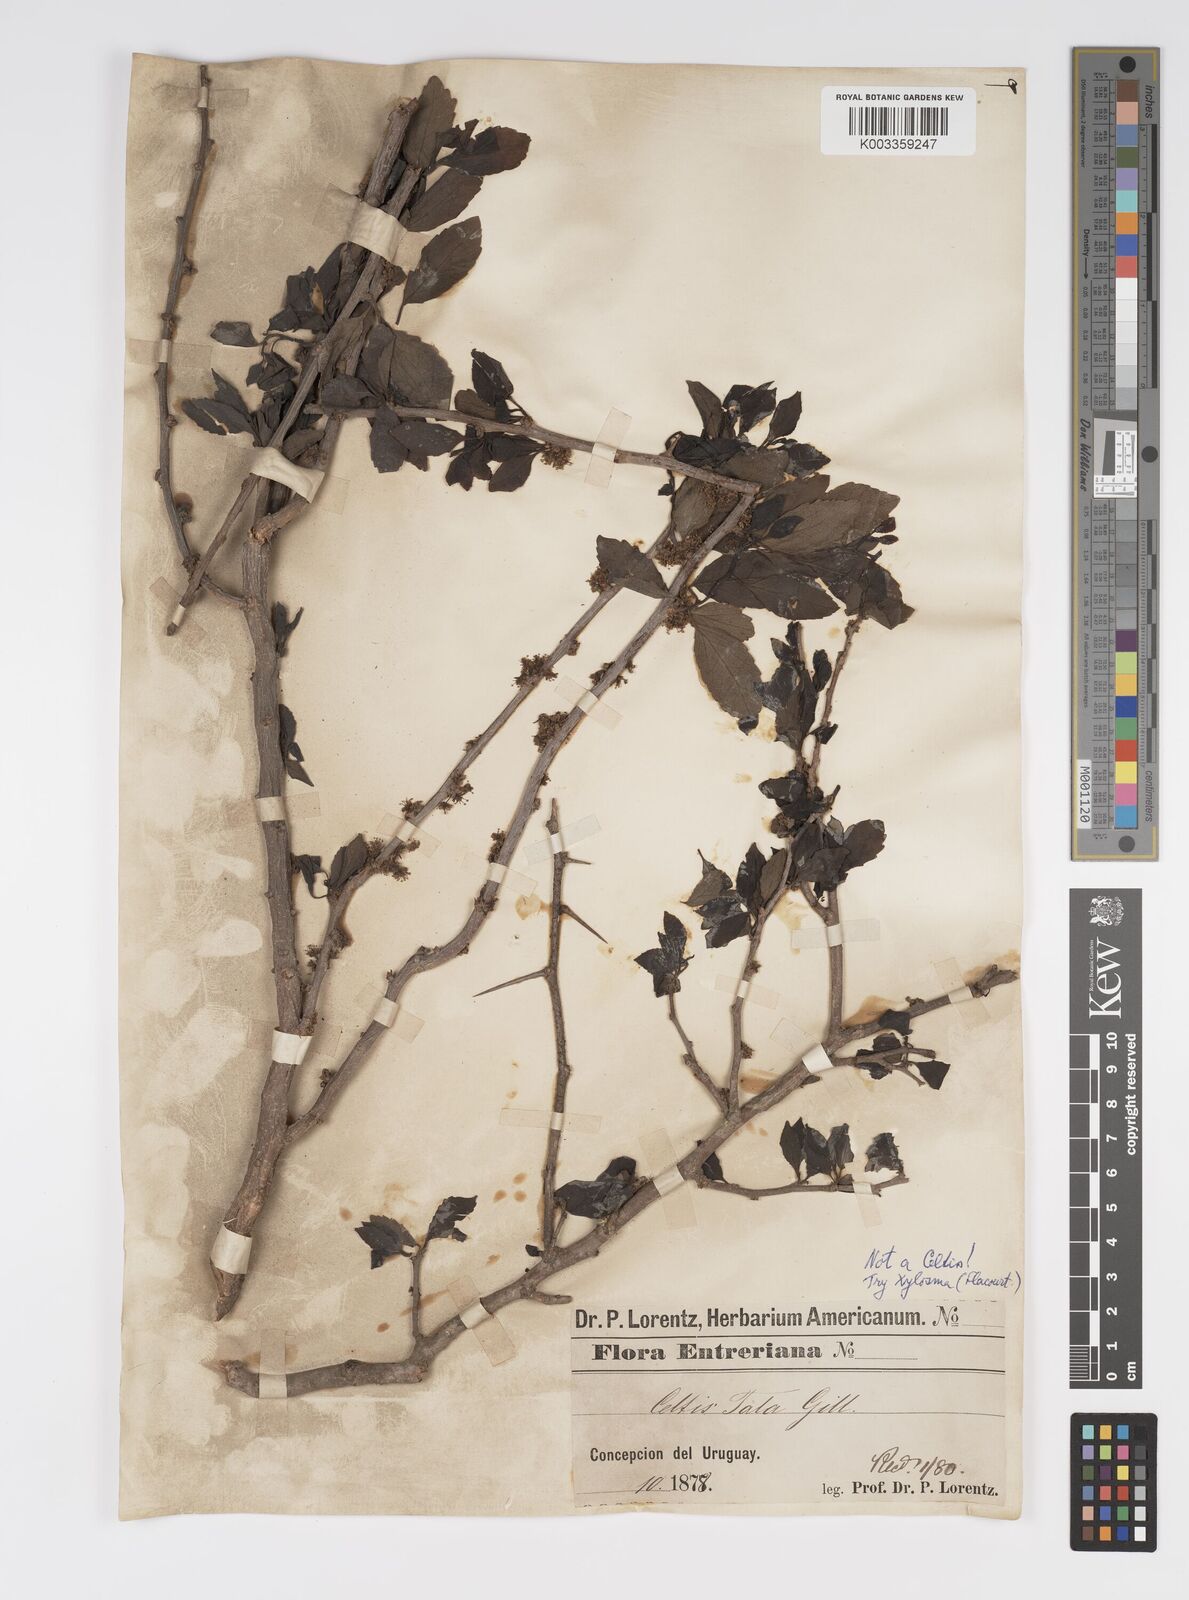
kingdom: Plantae
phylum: Tracheophyta
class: Magnoliopsida
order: Malpighiales
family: Salicaceae
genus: Xylosma
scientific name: Xylosma
